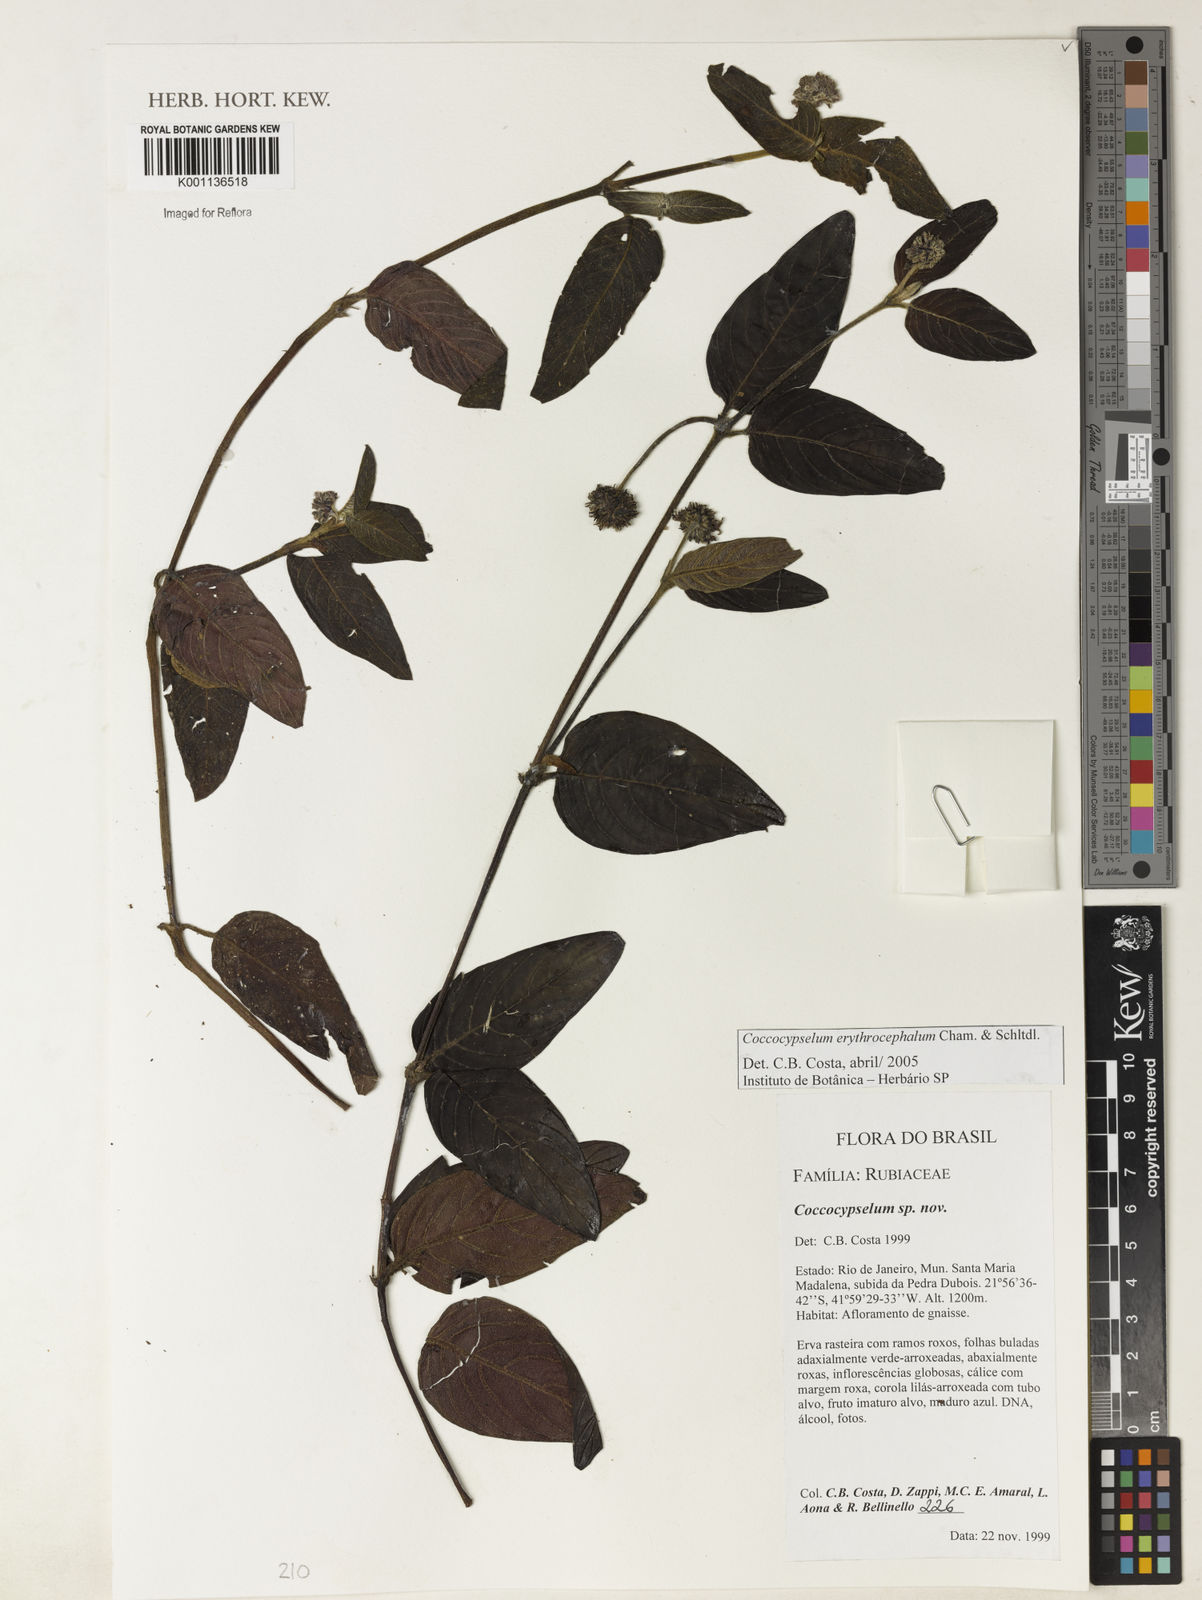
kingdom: Plantae
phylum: Tracheophyta
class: Magnoliopsida
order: Gentianales
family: Rubiaceae
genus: Coccocypselum
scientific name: Coccocypselum erythrocephalum
